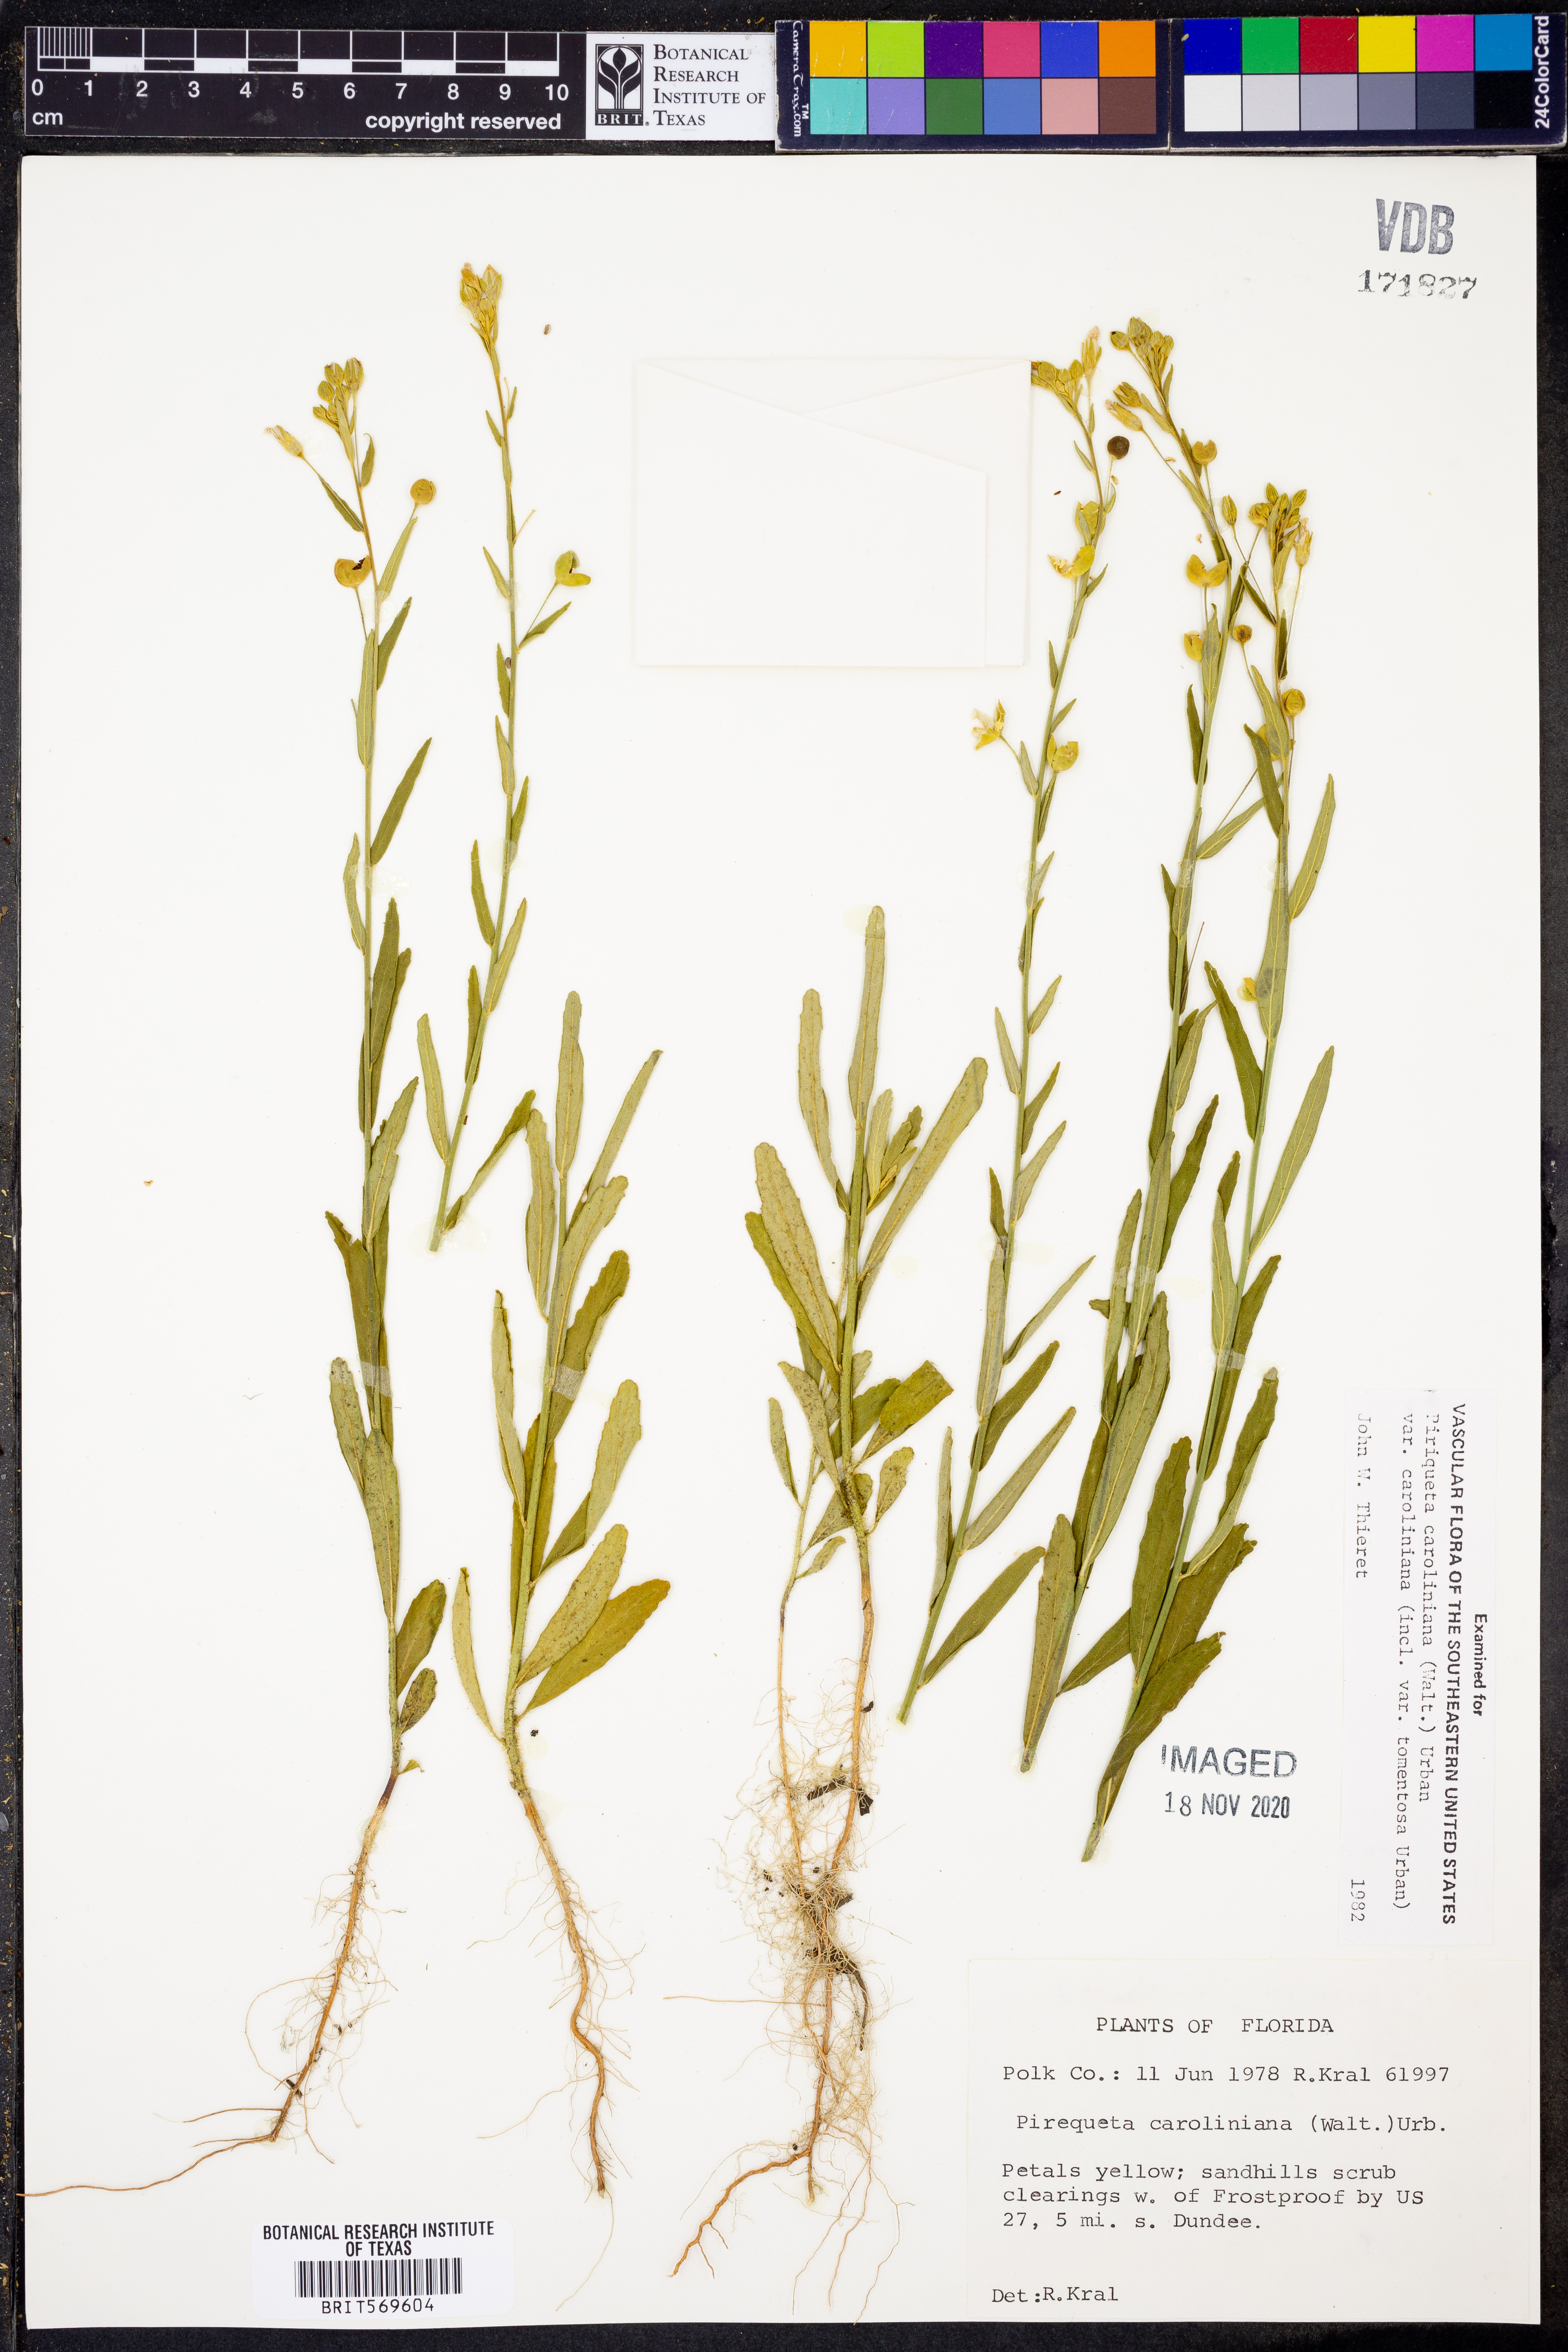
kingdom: Plantae
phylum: Tracheophyta
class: Magnoliopsida
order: Malpighiales
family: Turneraceae
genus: Piriqueta
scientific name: Piriqueta cistoides
